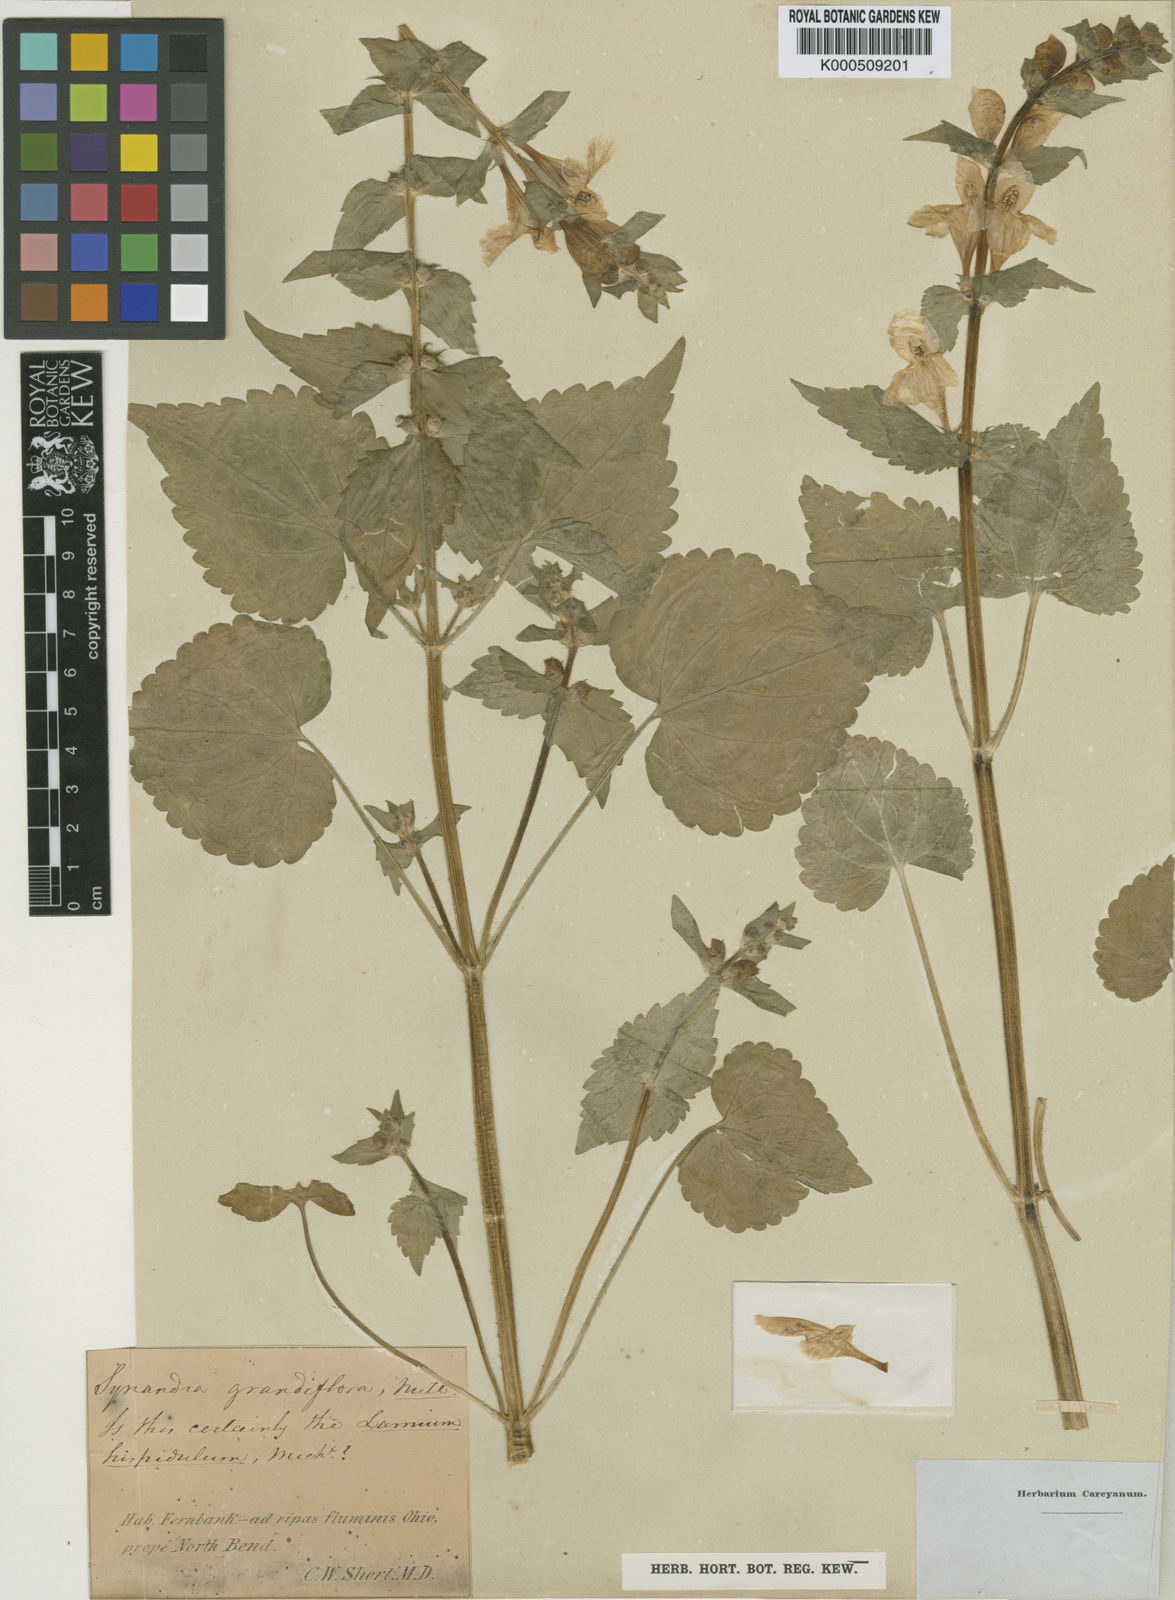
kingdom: Plantae
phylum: Tracheophyta
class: Magnoliopsida
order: Lamiales
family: Lamiaceae
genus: Synandra
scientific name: Synandra hispidula
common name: Synandra
